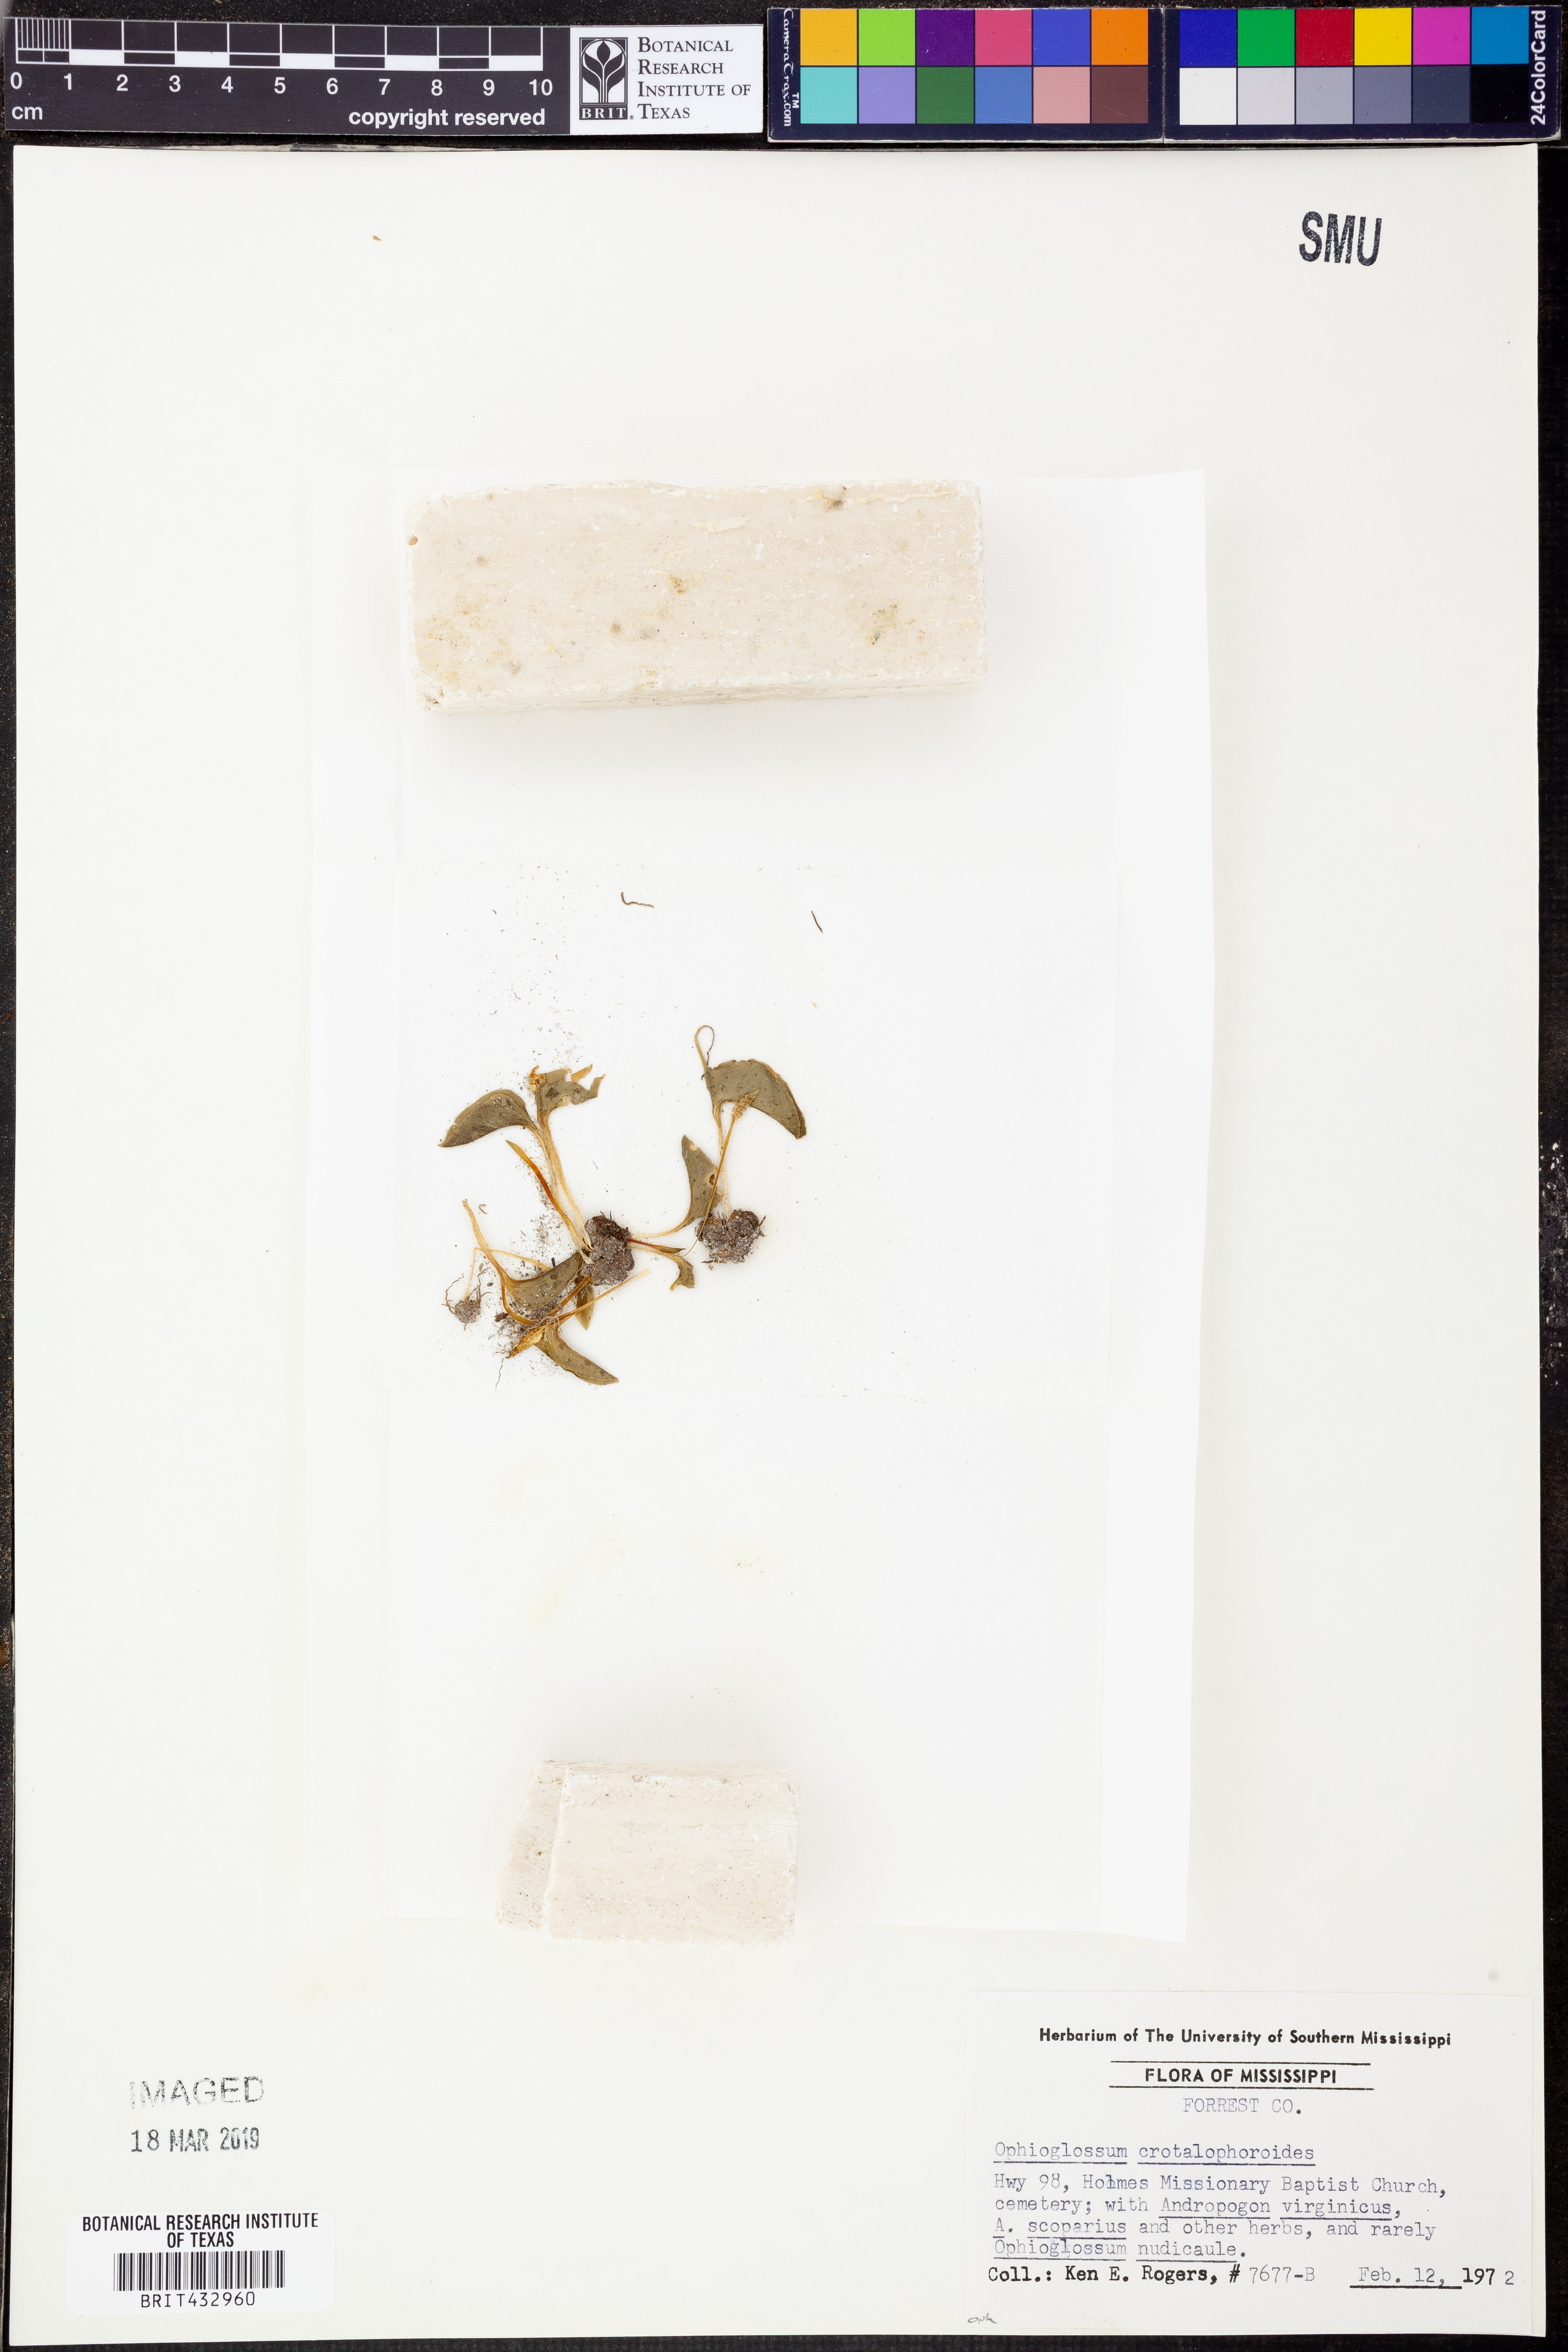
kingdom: Plantae
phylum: Tracheophyta
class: Polypodiopsida
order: Ophioglossales
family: Ophioglossaceae
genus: Ophioglossum
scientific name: Ophioglossum crotalophoroides
